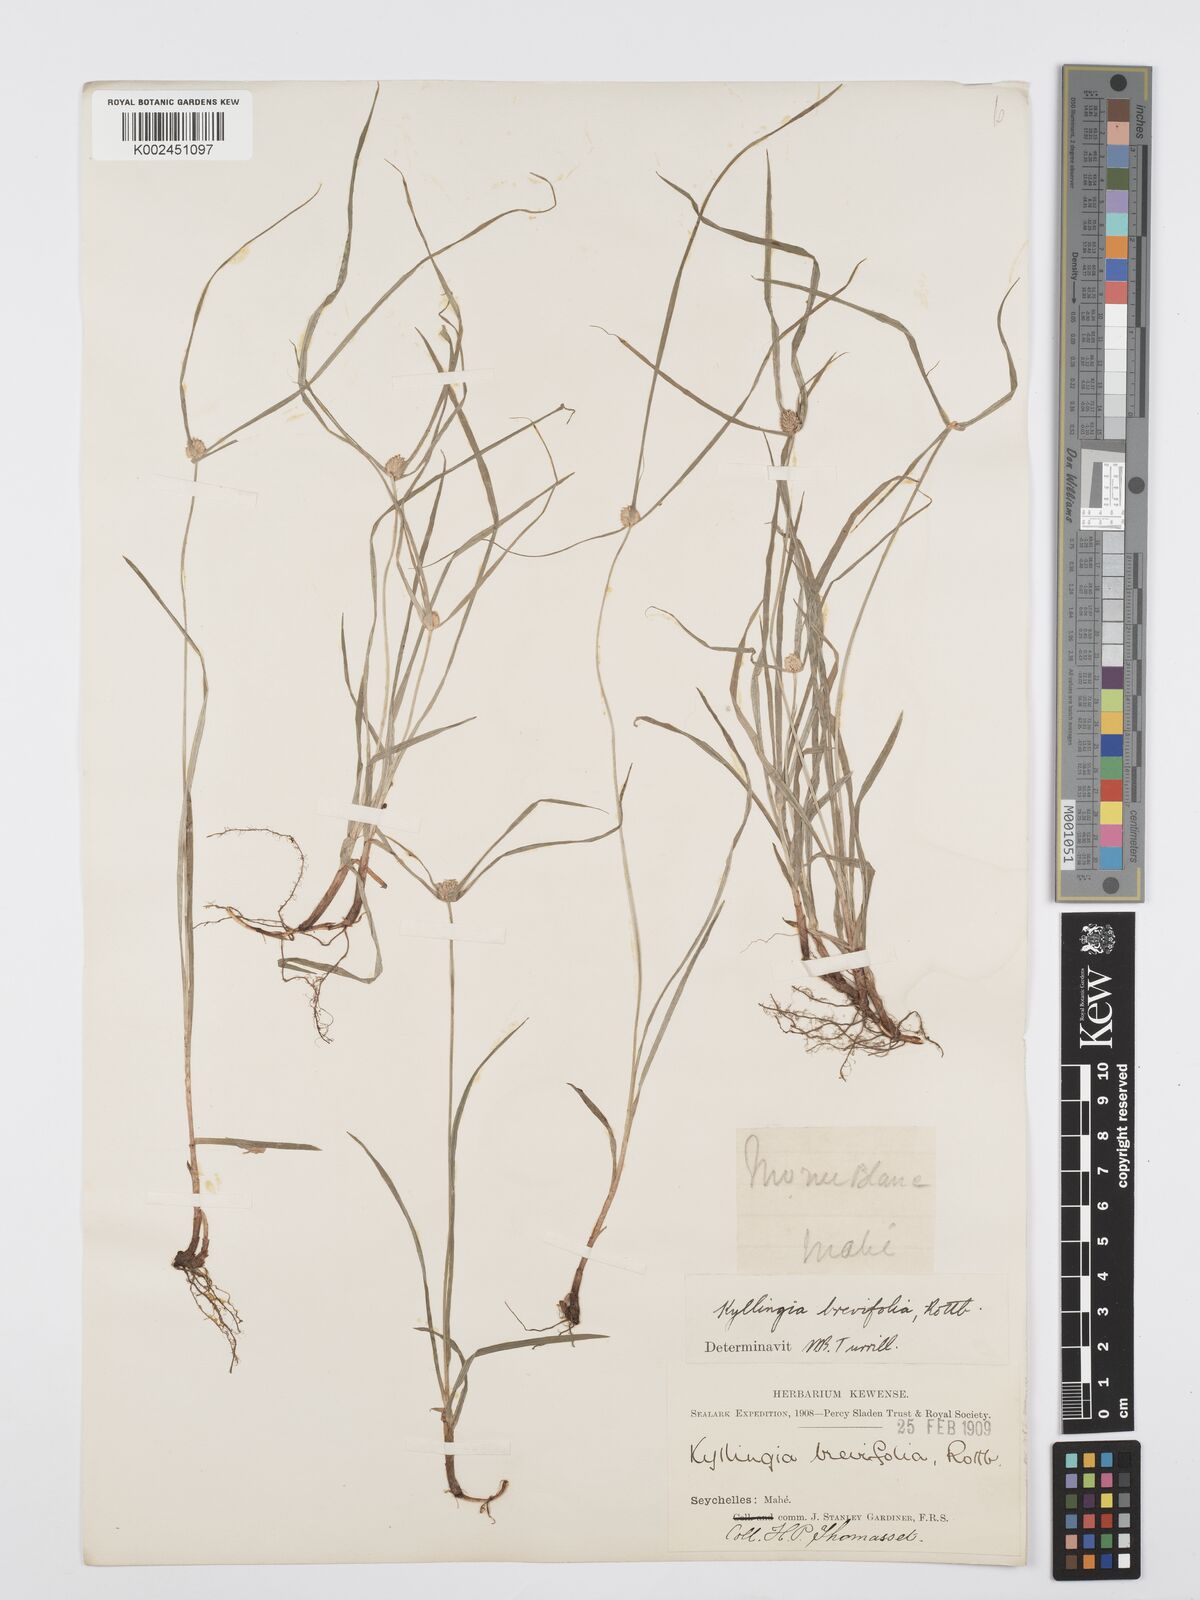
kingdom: Plantae
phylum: Tracheophyta
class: Liliopsida
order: Poales
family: Cyperaceae
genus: Cyperus
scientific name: Cyperus nemoralis
